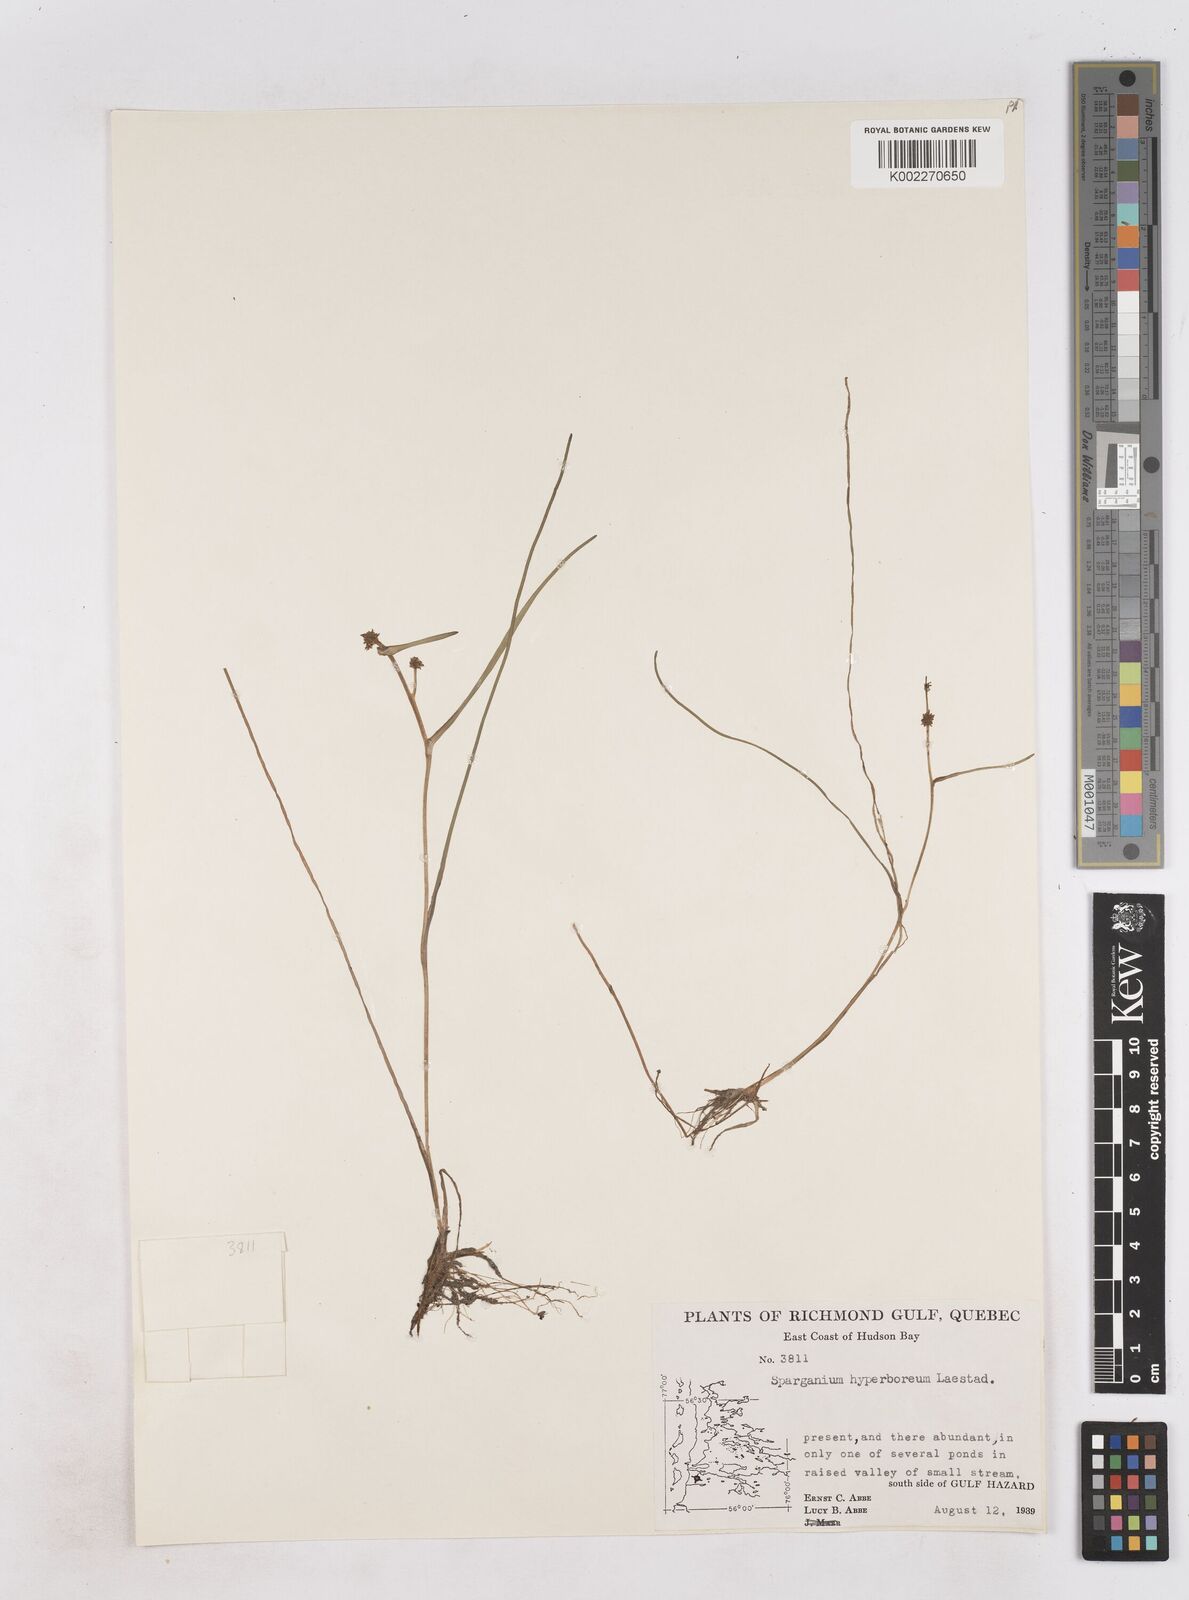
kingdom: Plantae
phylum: Tracheophyta
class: Liliopsida
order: Poales
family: Typhaceae
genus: Sparganium
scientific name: Sparganium hyperboreum
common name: Arctic burreed
